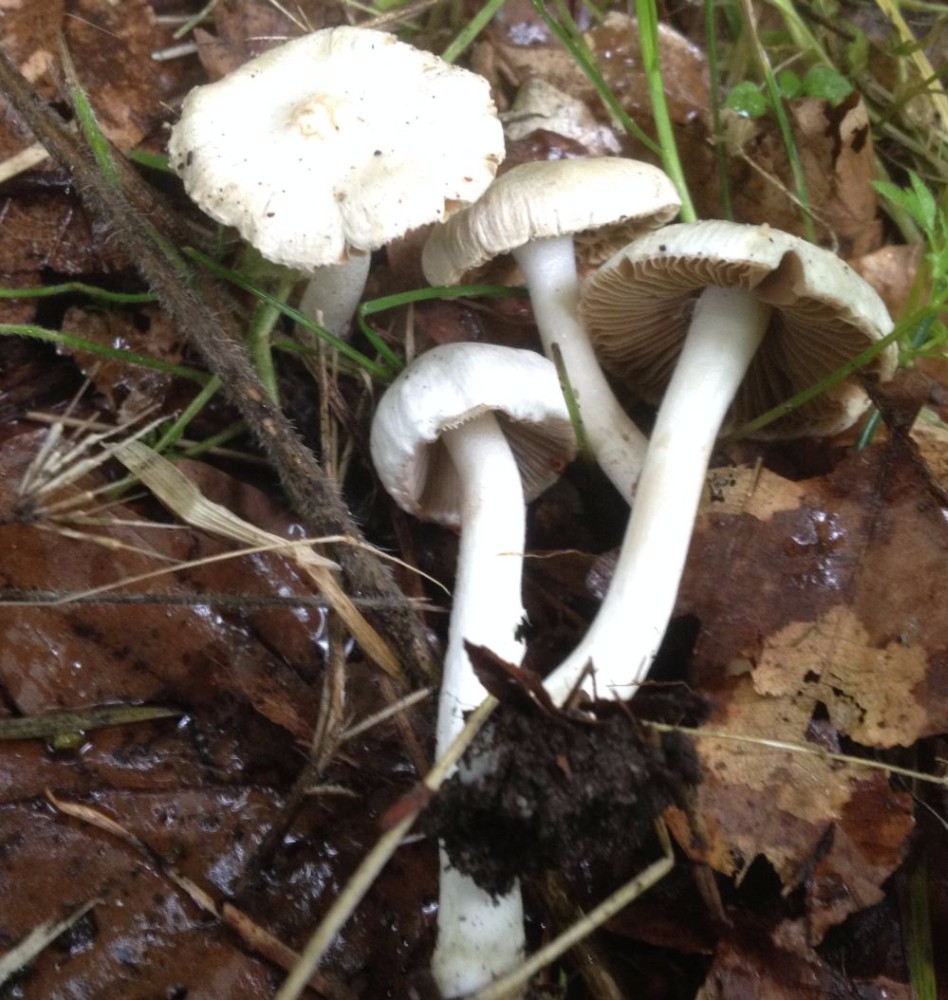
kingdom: Fungi
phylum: Basidiomycota
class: Agaricomycetes
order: Agaricales
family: Inocybaceae
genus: Inocybe
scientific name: Inocybe
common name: almindelig trævlhat
